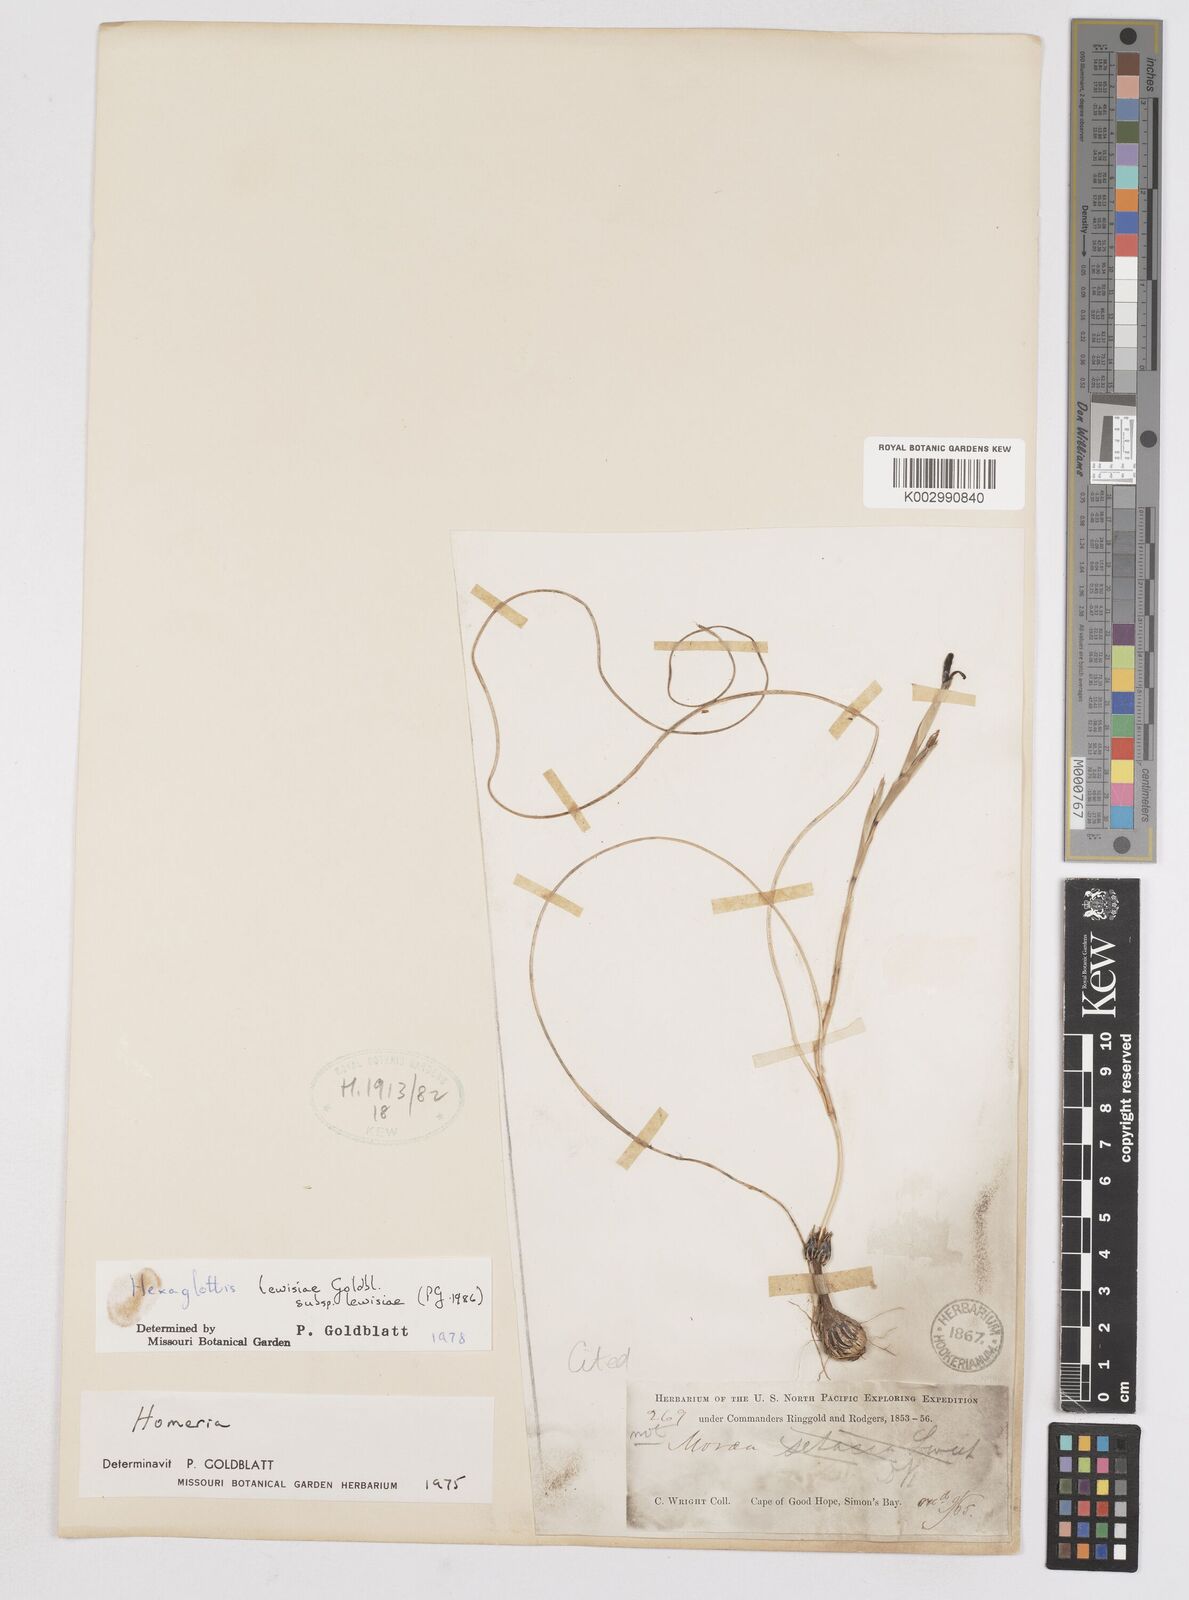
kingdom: Plantae
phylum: Tracheophyta
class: Liliopsida
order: Asparagales
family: Iridaceae
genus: Moraea
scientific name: Moraea lewisiae
